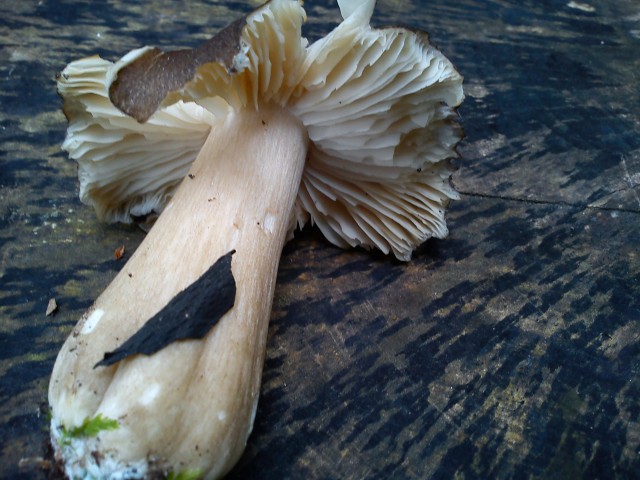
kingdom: Fungi
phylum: Basidiomycota
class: Agaricomycetes
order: Agaricales
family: Tricholomataceae
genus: Megacollybia
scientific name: Megacollybia platyphylla
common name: bredbladet væbnerhat
